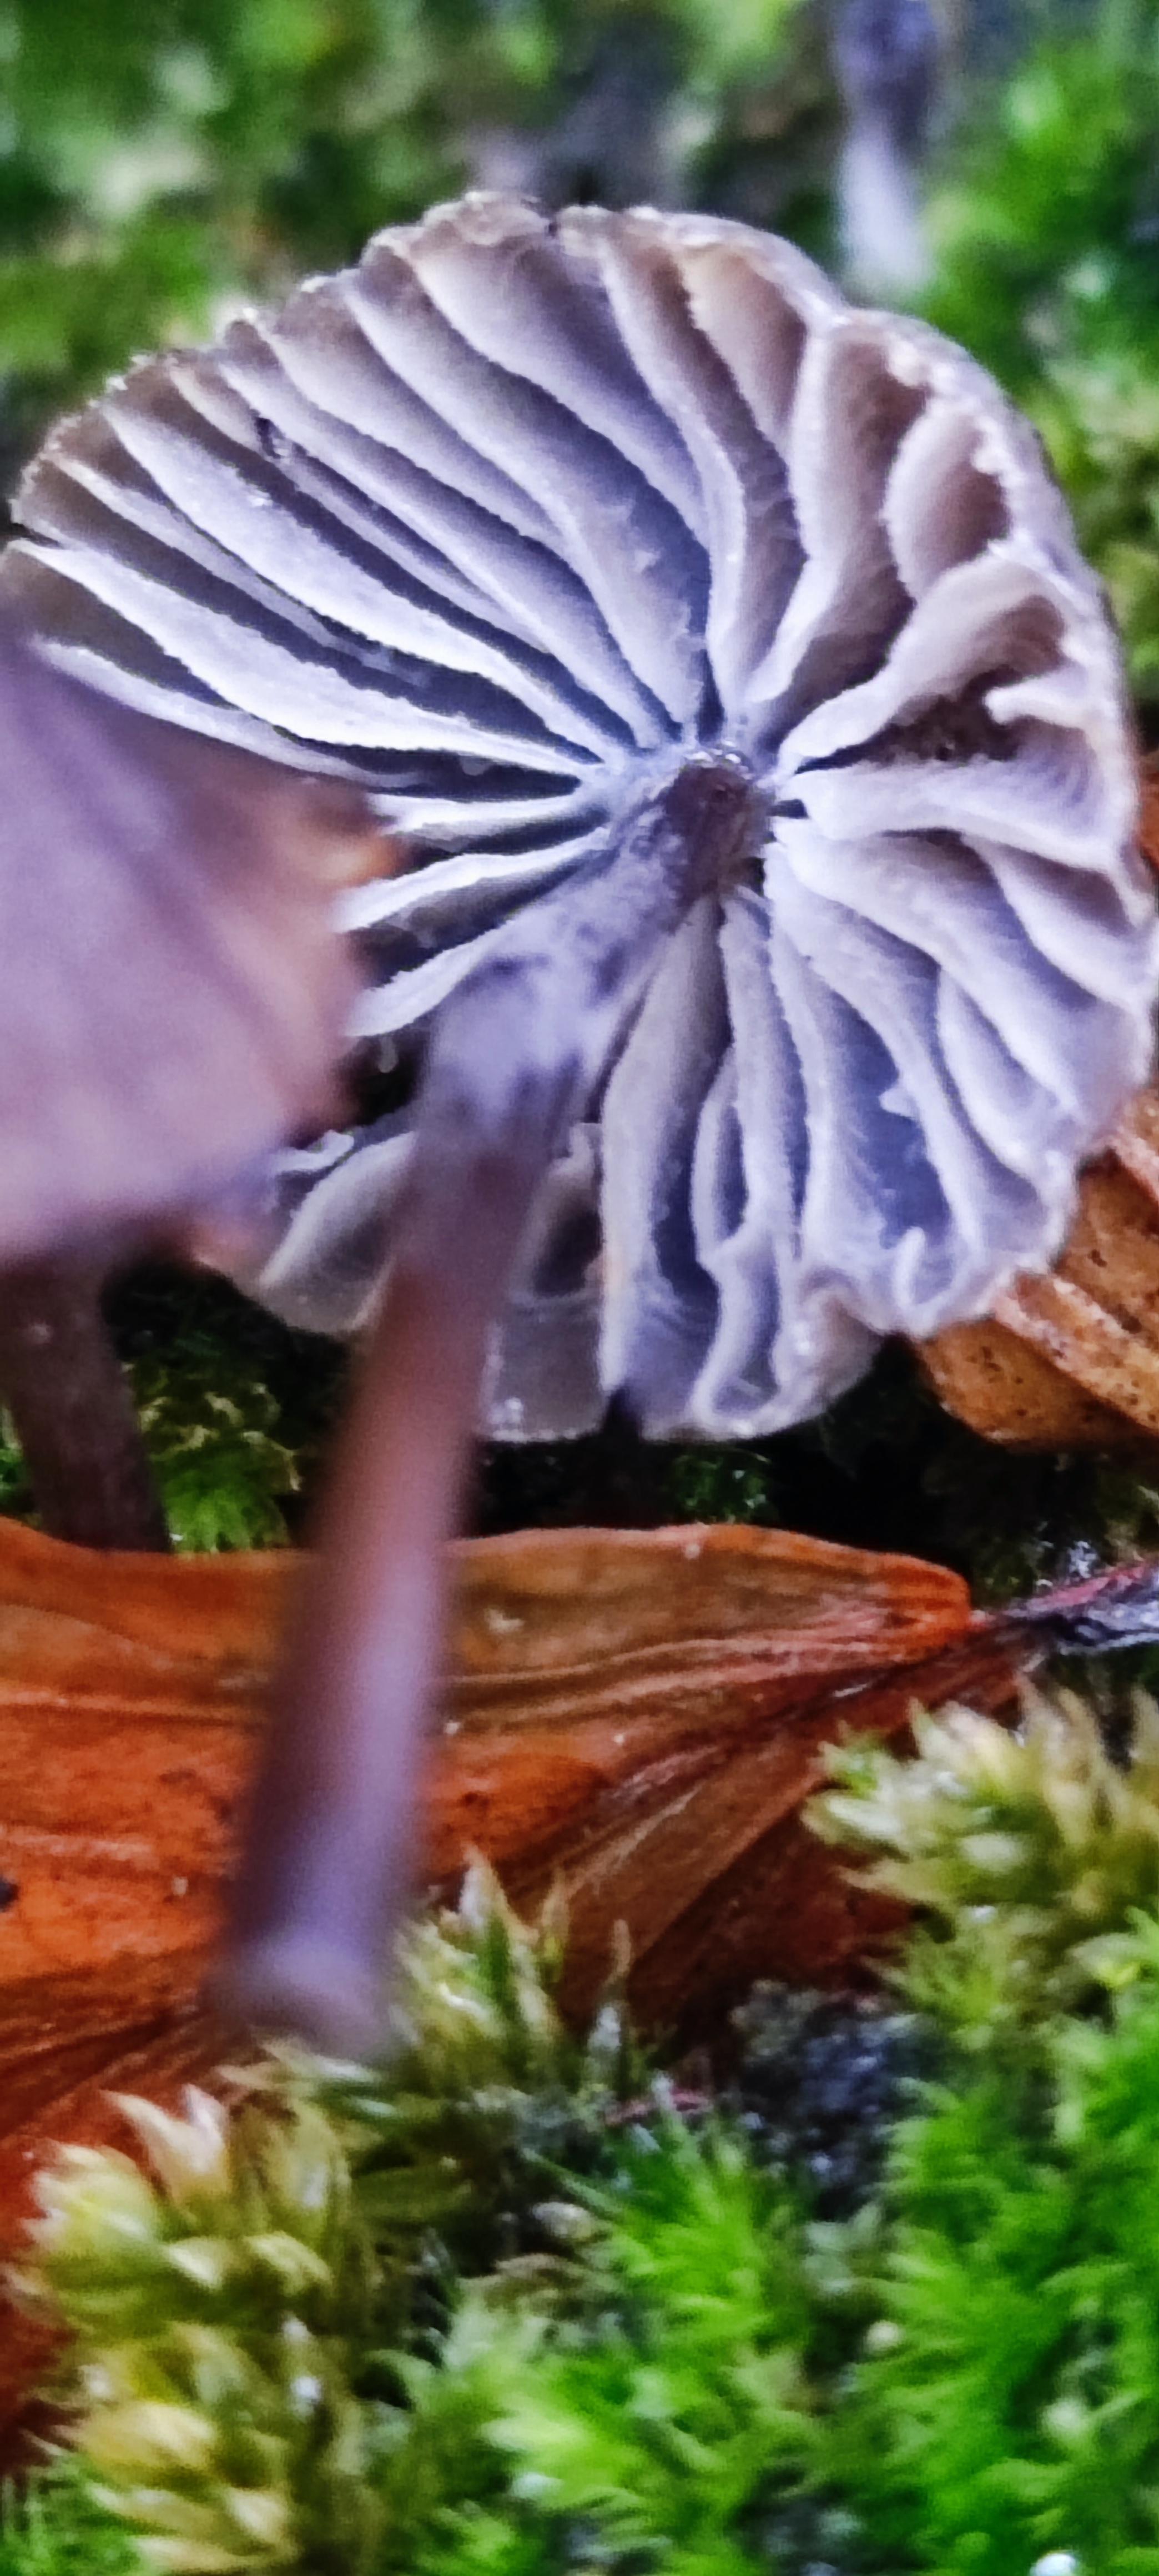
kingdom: Fungi
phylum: Basidiomycota
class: Agaricomycetes
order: Agaricales
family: Mycenaceae
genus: Mycena
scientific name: Mycena
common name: huesvamp
